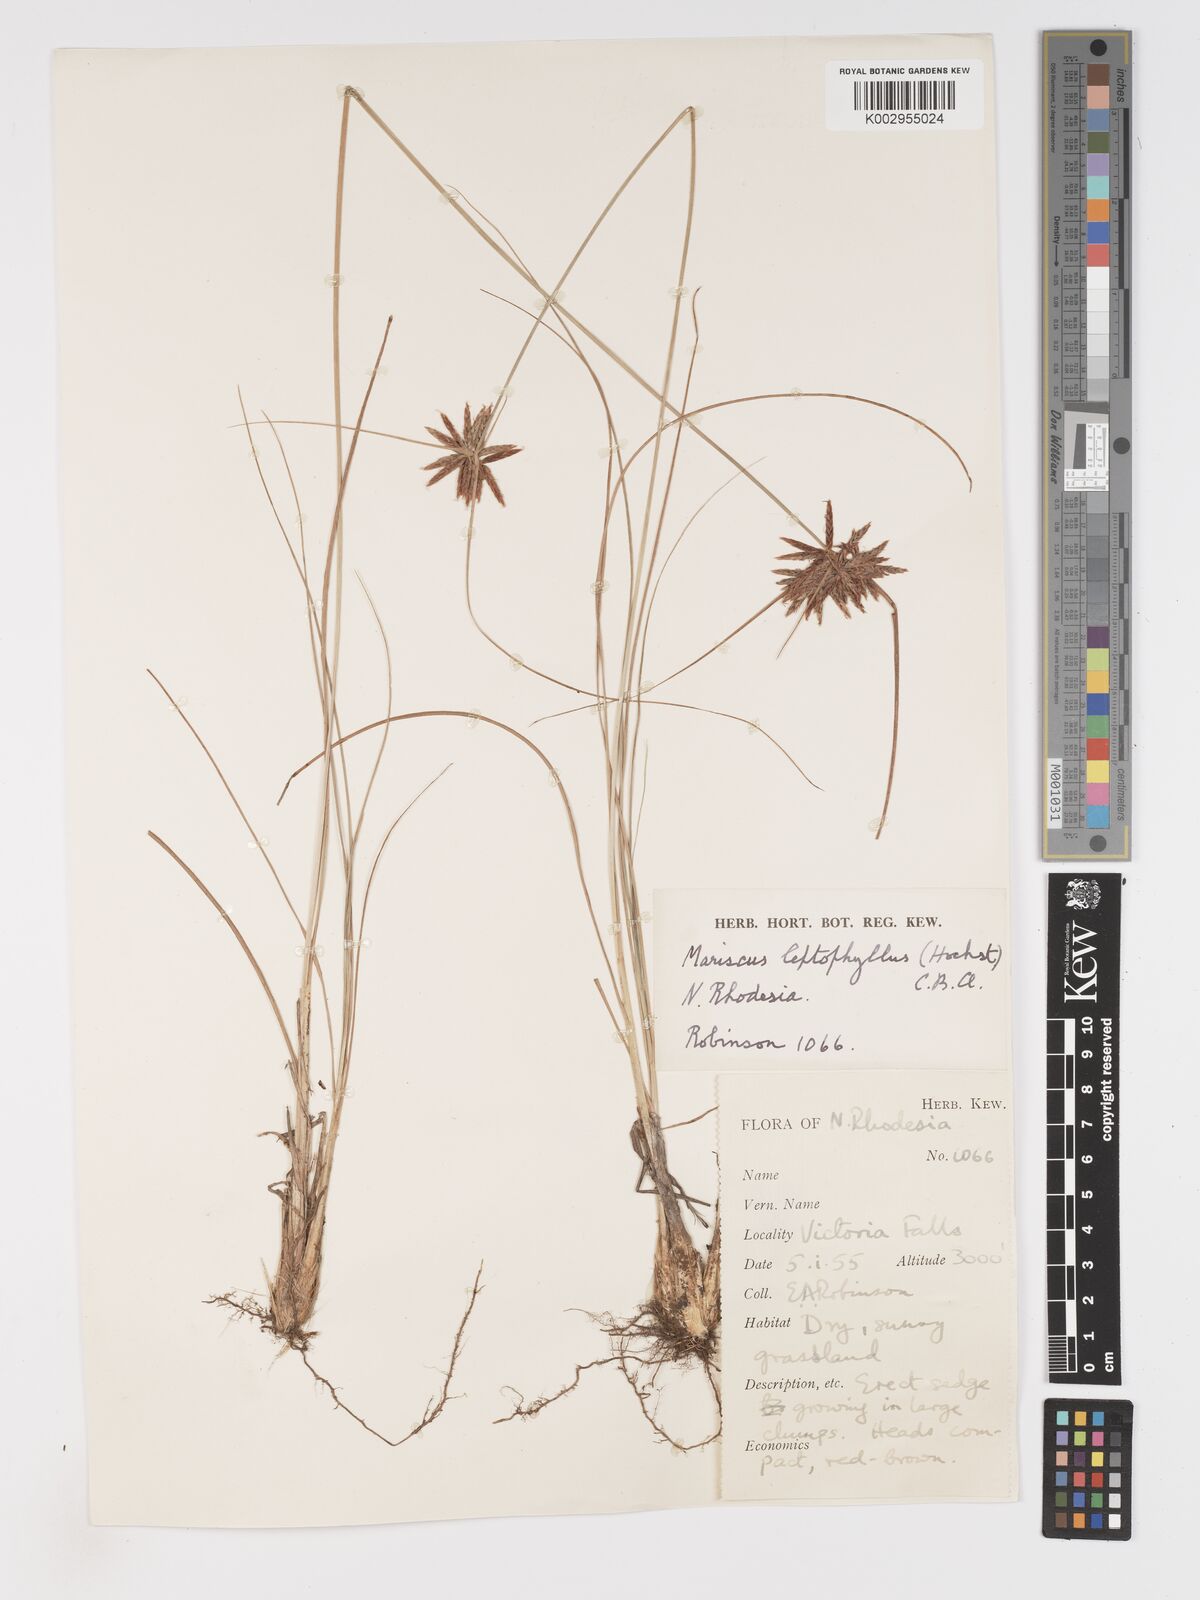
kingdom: Plantae
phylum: Tracheophyta
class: Liliopsida
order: Poales
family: Cyperaceae
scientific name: Cyperaceae
